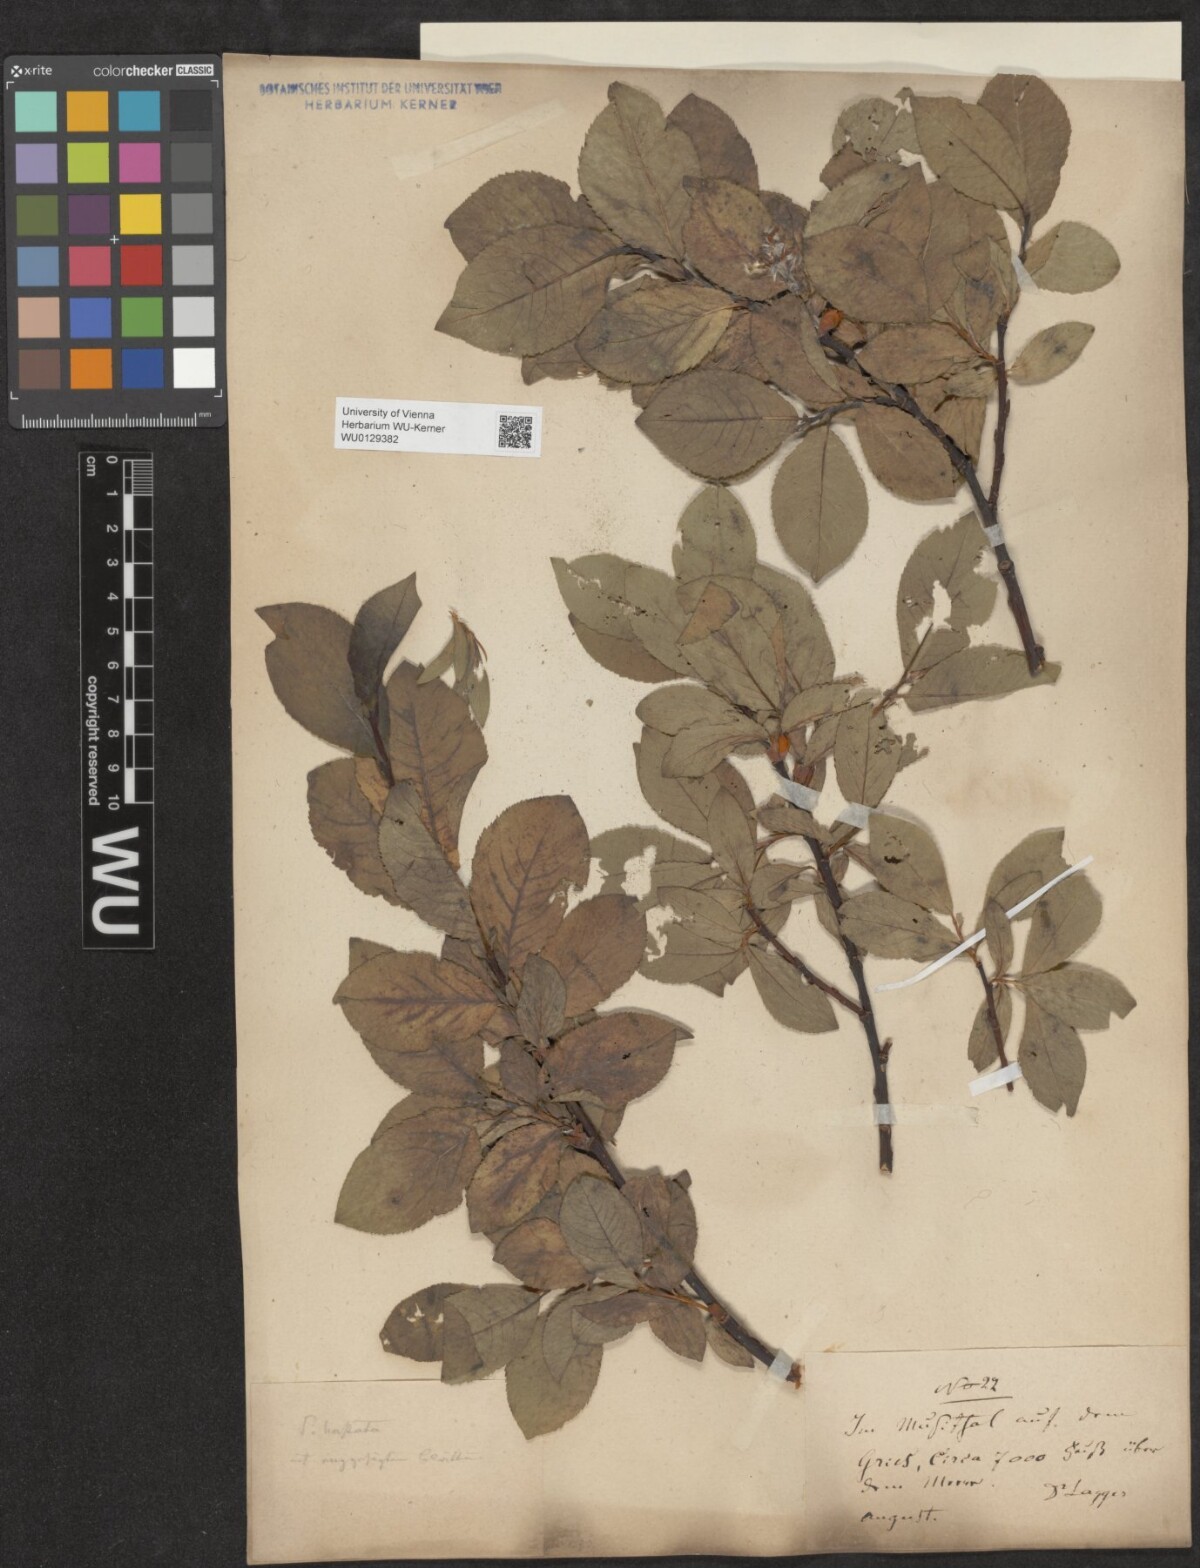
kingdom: Plantae
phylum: Tracheophyta
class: Magnoliopsida
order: Malpighiales
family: Salicaceae
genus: Salix
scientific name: Salix hastata
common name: Halberd willow
